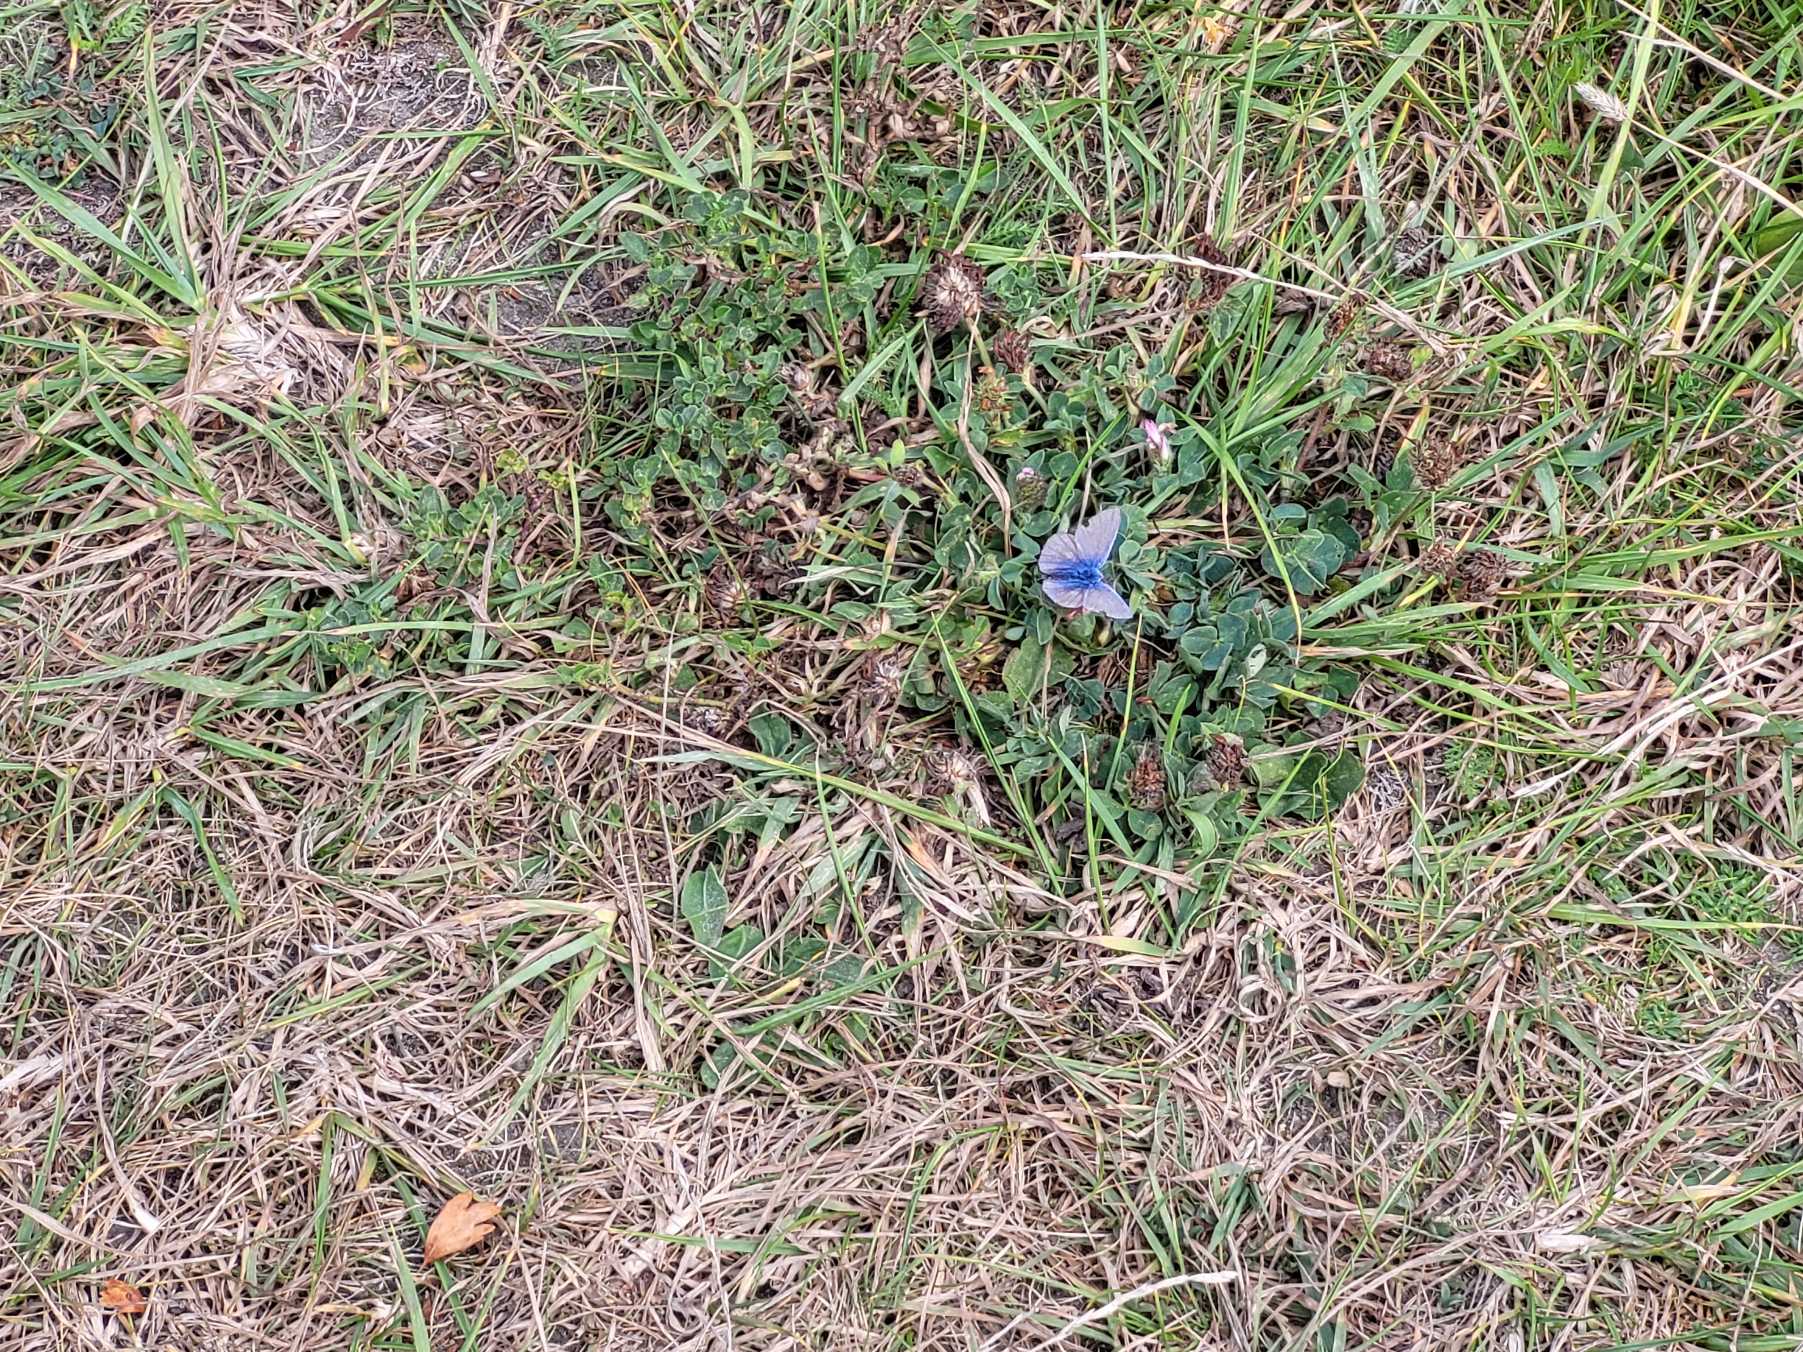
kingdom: Animalia
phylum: Arthropoda
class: Insecta
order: Lepidoptera
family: Lycaenidae
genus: Polyommatus
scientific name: Polyommatus icarus
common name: Almindelig blåfugl
